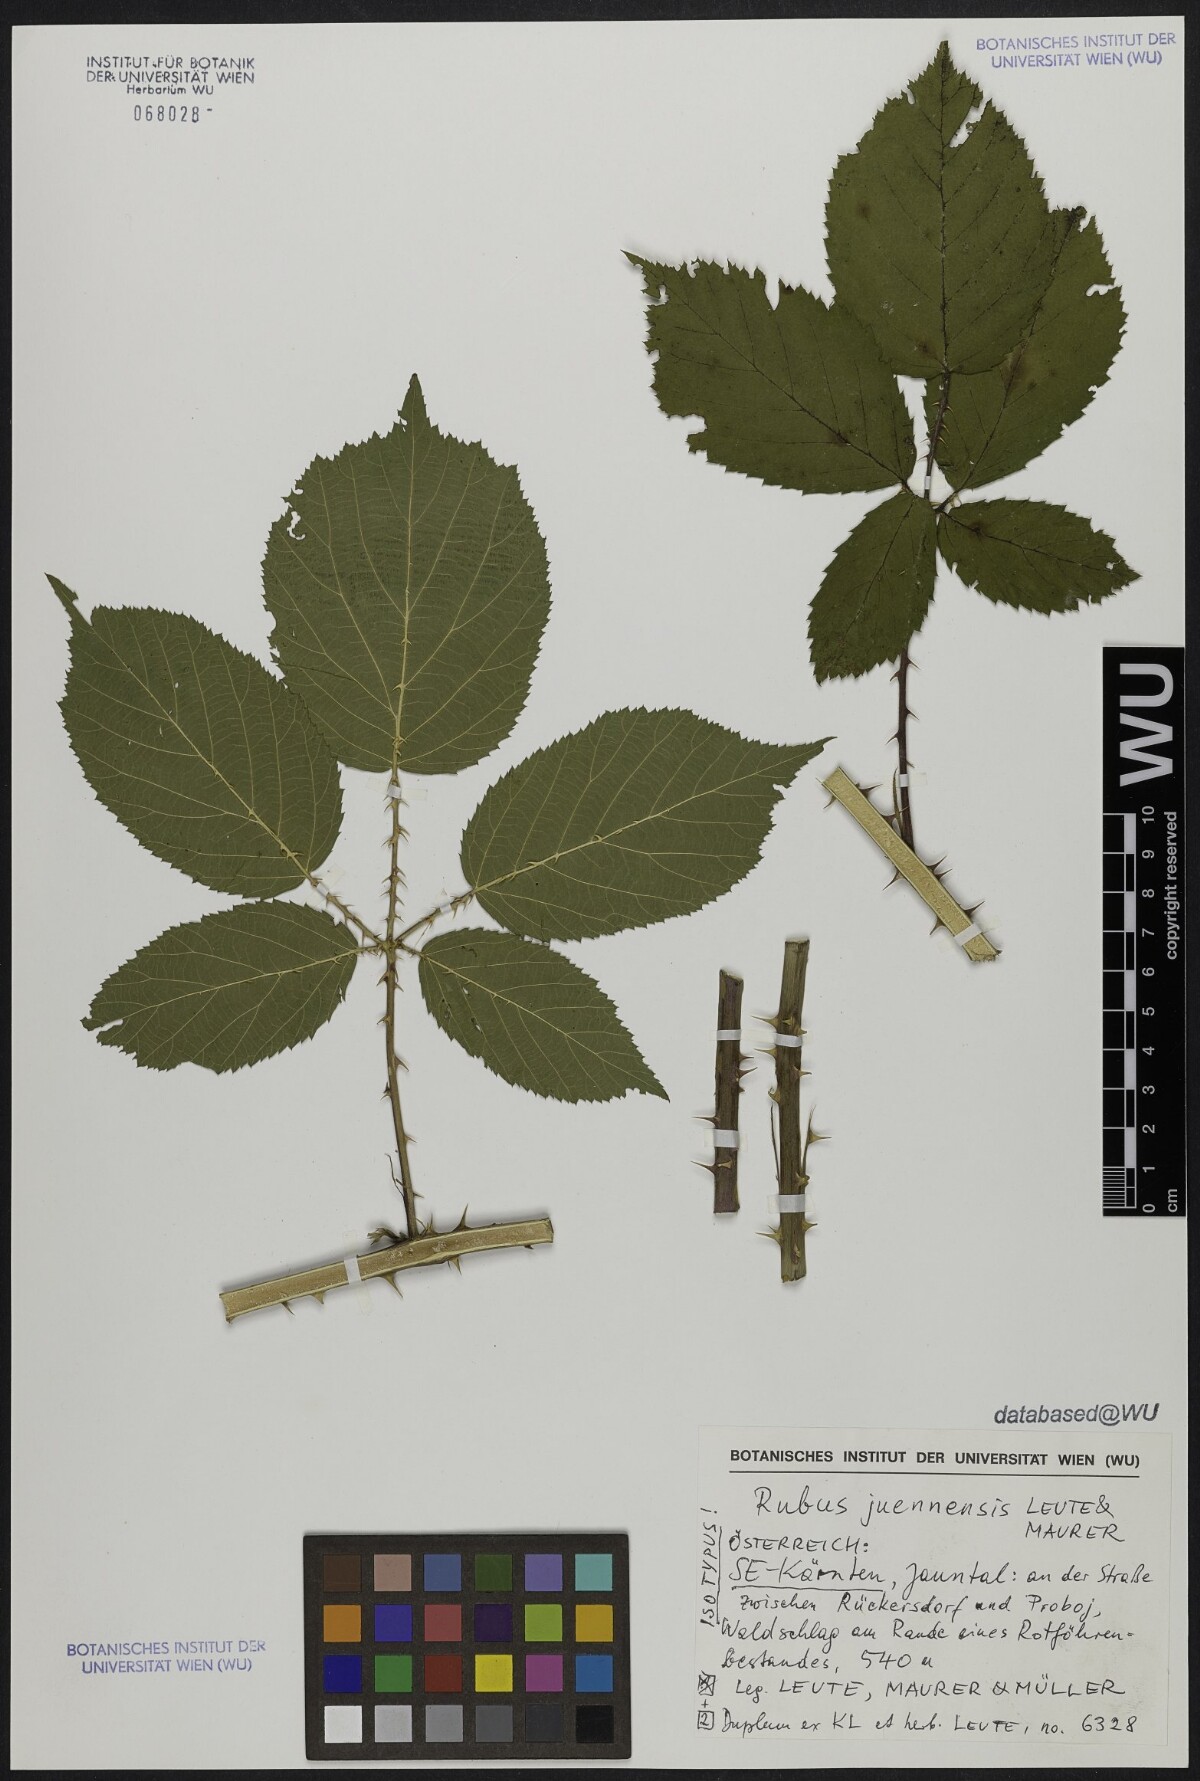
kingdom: Plantae
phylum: Tracheophyta
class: Magnoliopsida
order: Rosales
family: Rosaceae
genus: Rubus
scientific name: Rubus juennensis
